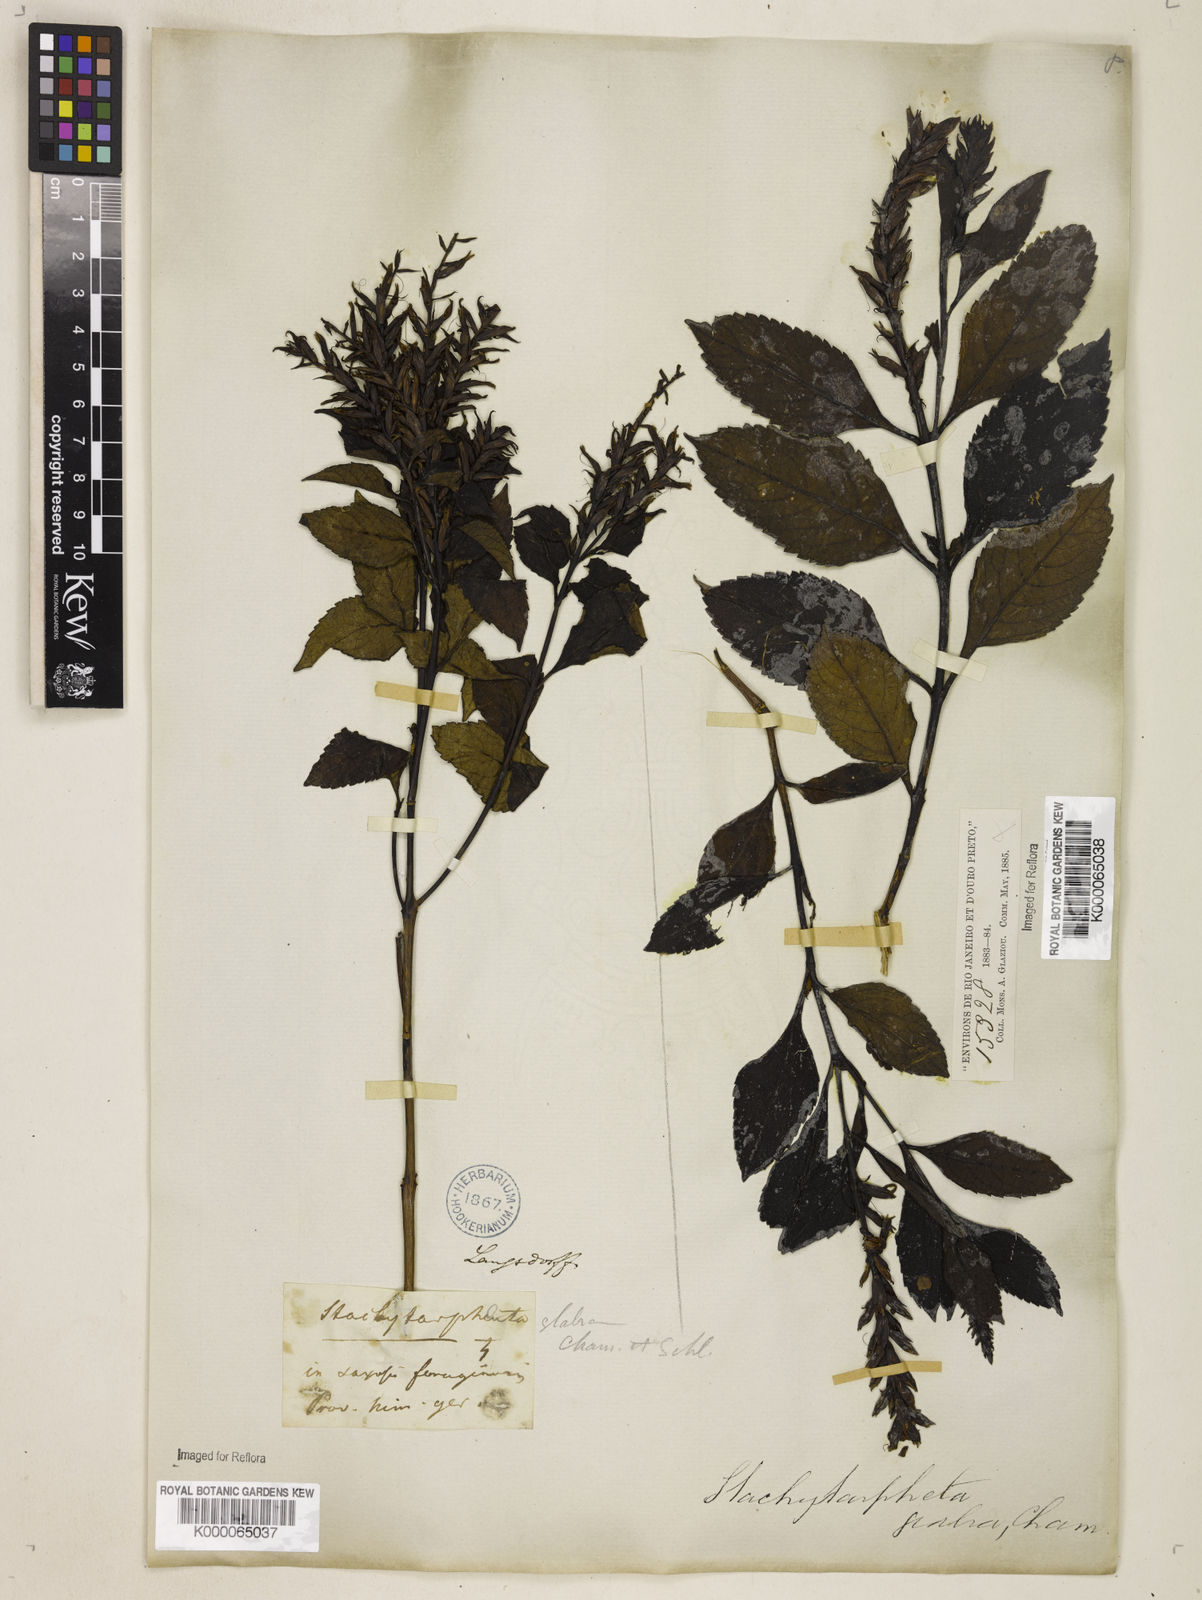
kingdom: Plantae
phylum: Tracheophyta
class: Magnoliopsida
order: Lamiales
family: Verbenaceae
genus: Stachytarpheta
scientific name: Stachytarpheta glabra
